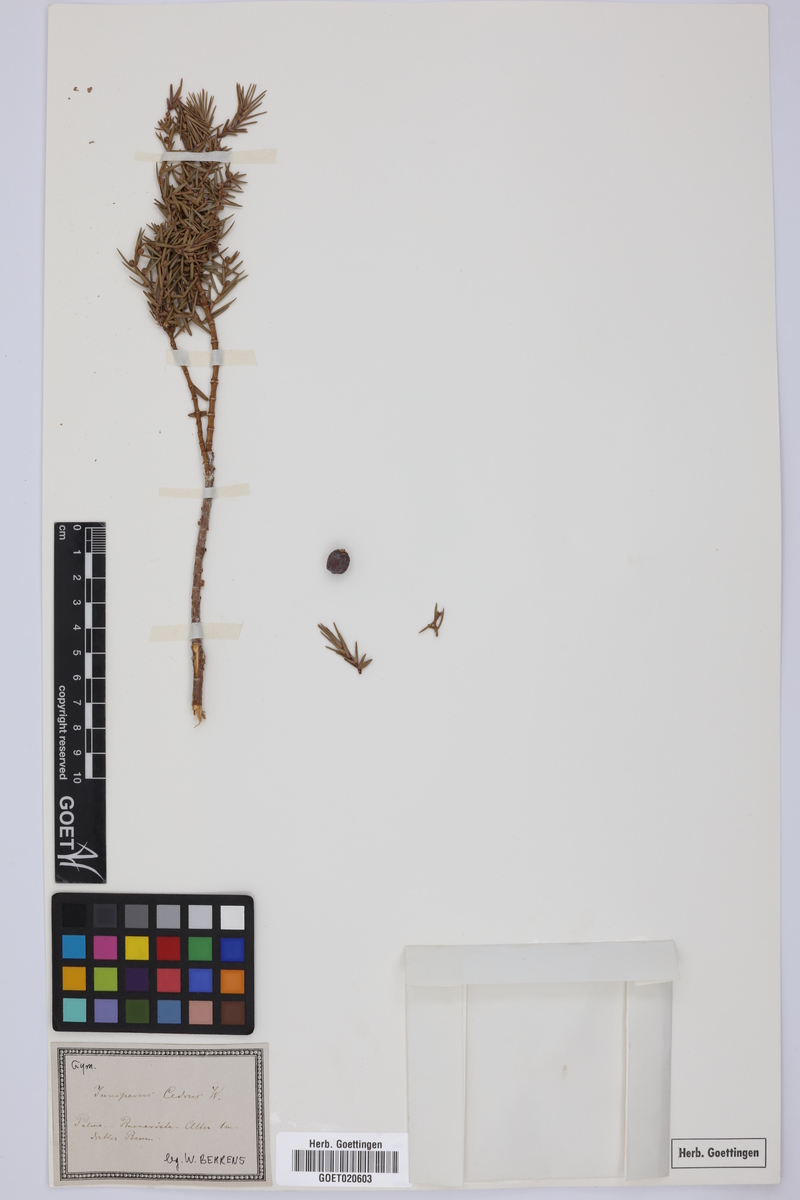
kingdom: Plantae
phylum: Tracheophyta
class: Pinopsida
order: Pinales
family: Cupressaceae
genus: Juniperus
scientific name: Juniperus cedrus
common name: Canary islands juniper
